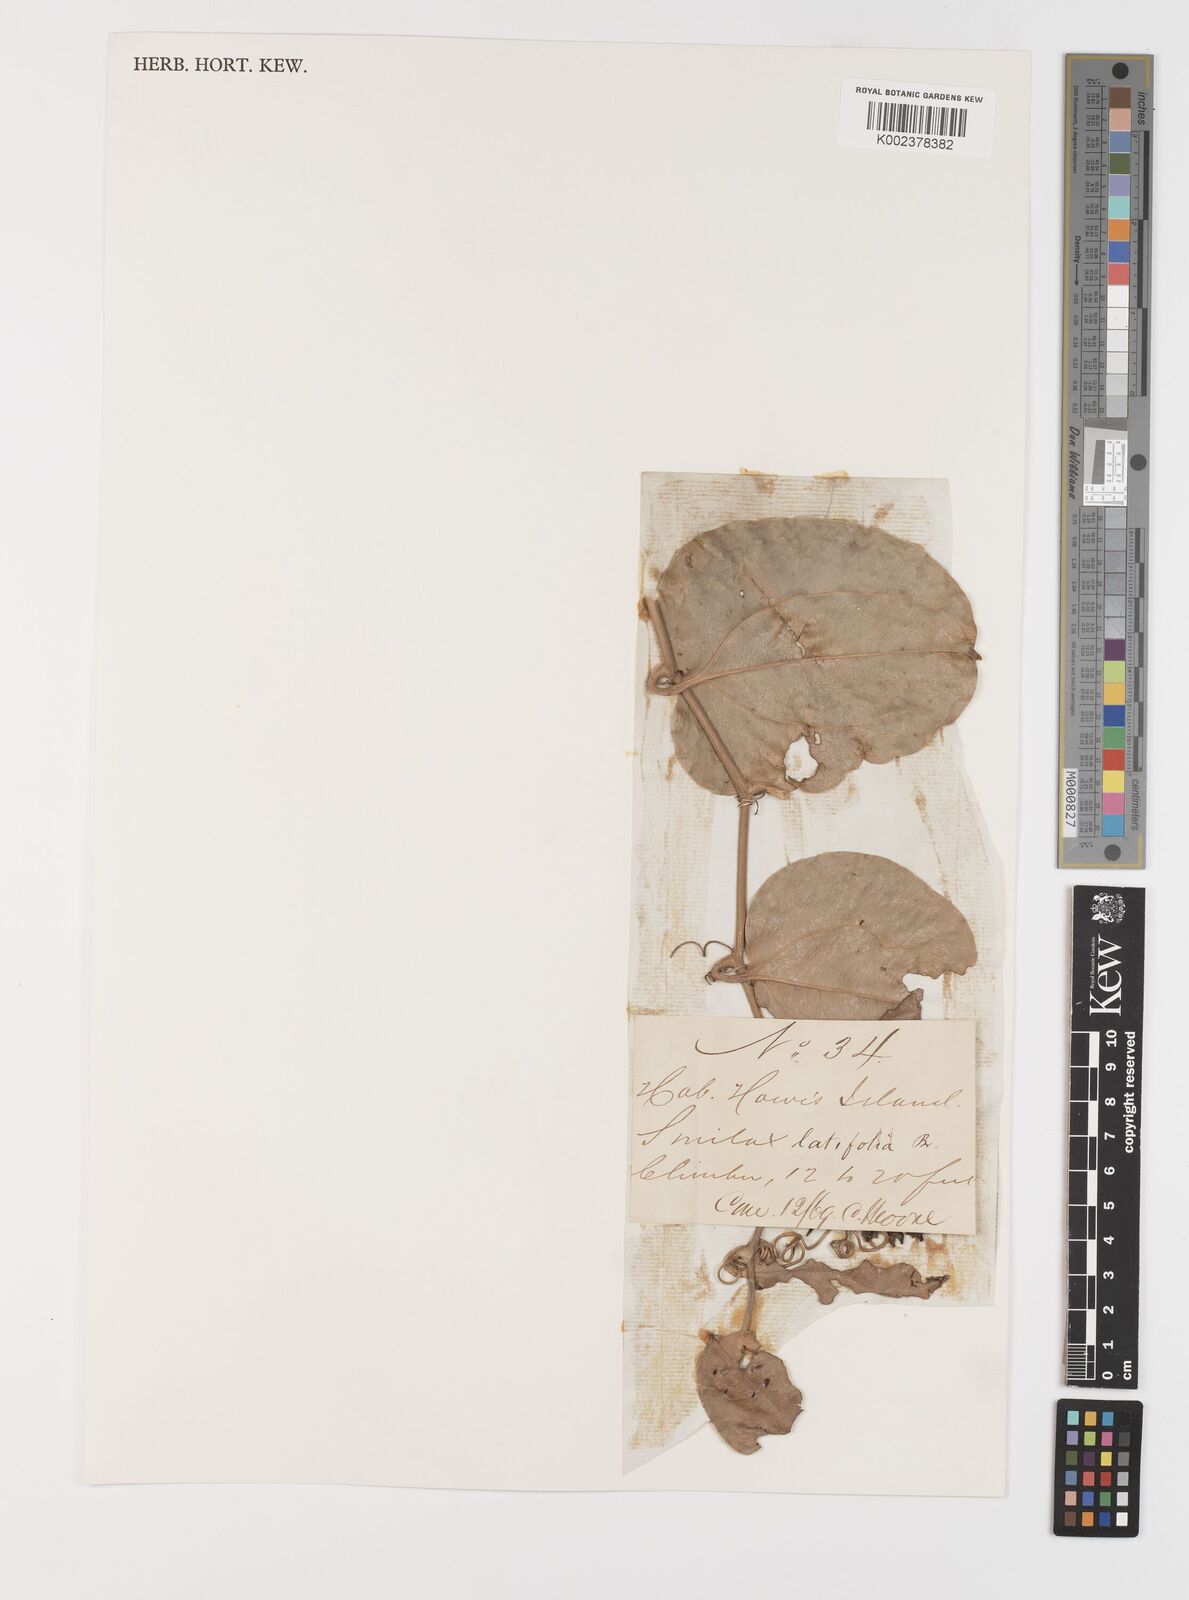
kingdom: Plantae
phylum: Tracheophyta
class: Liliopsida
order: Liliales
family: Smilacaceae
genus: Smilax
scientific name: Smilax australis
